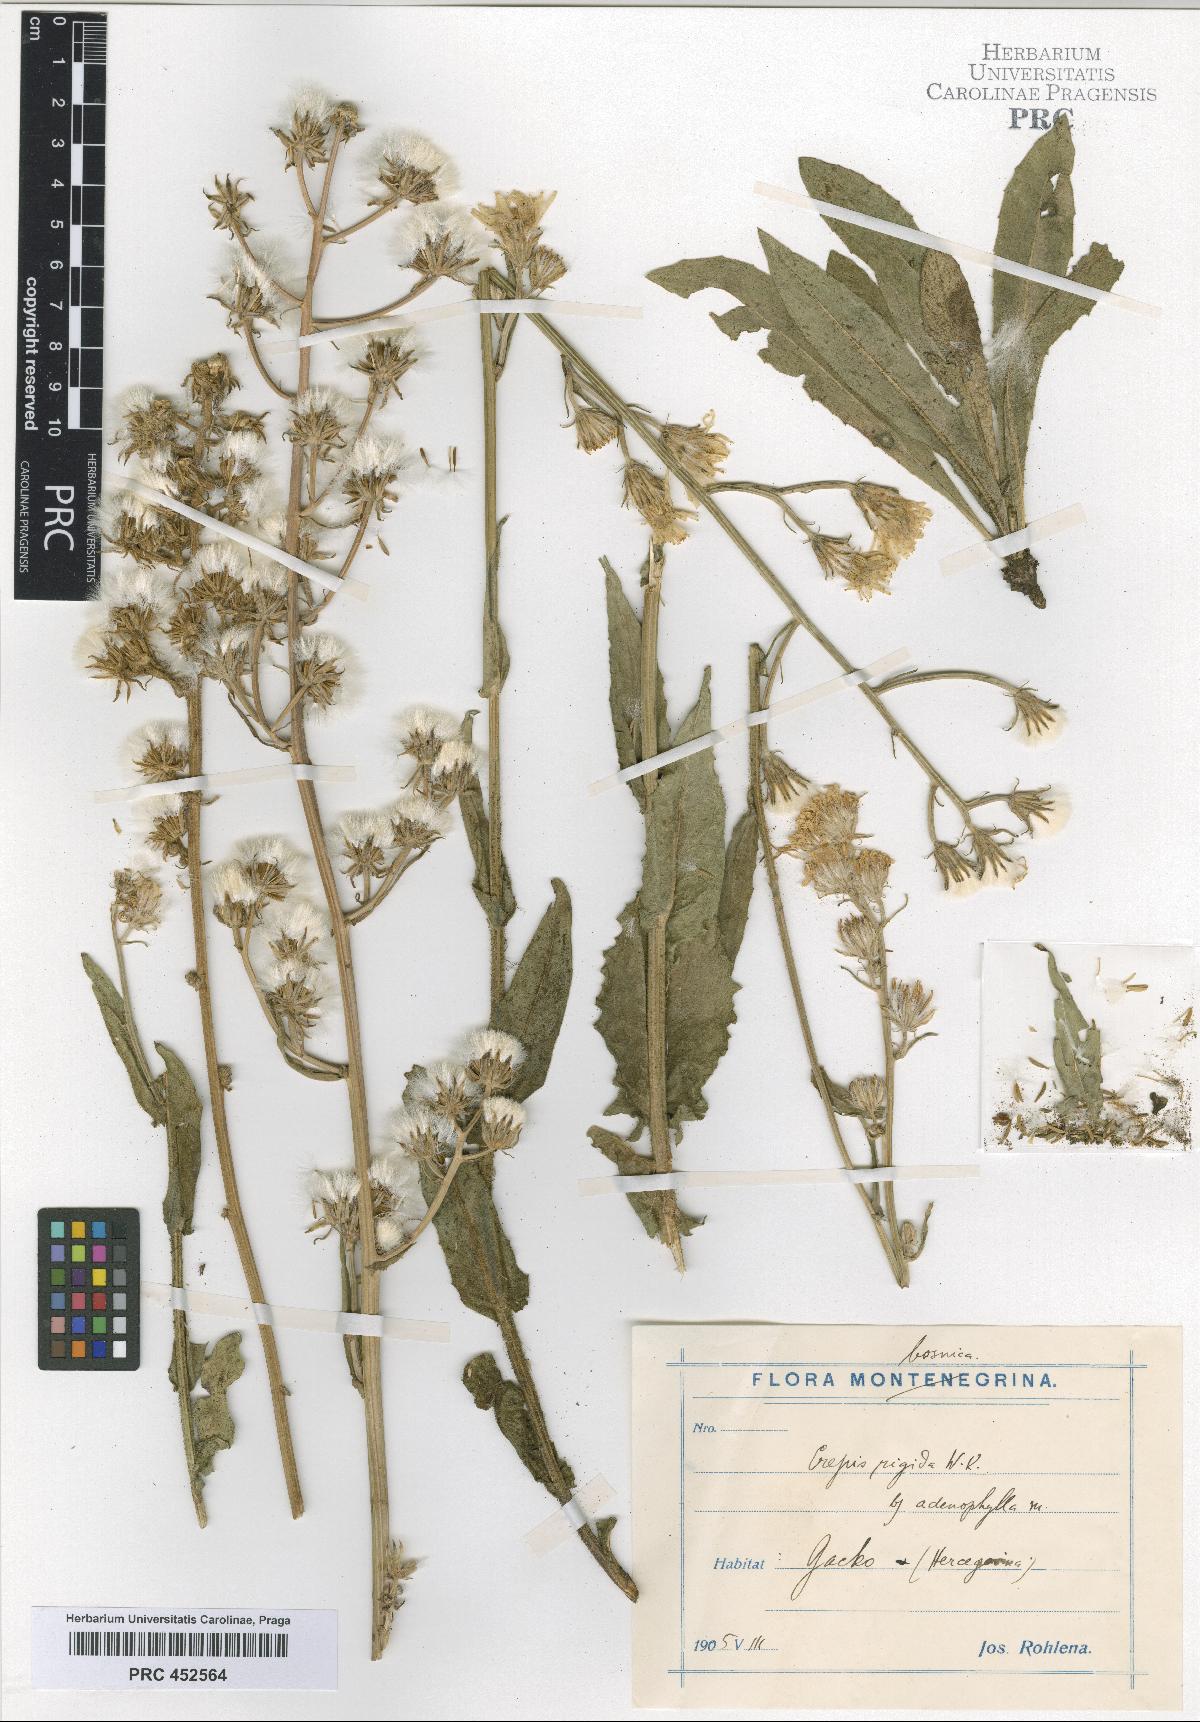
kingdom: Plantae
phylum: Tracheophyta
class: Magnoliopsida
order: Asterales
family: Asteraceae
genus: Crepis
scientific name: Crepis pannonica
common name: Pasture hawksbeard
